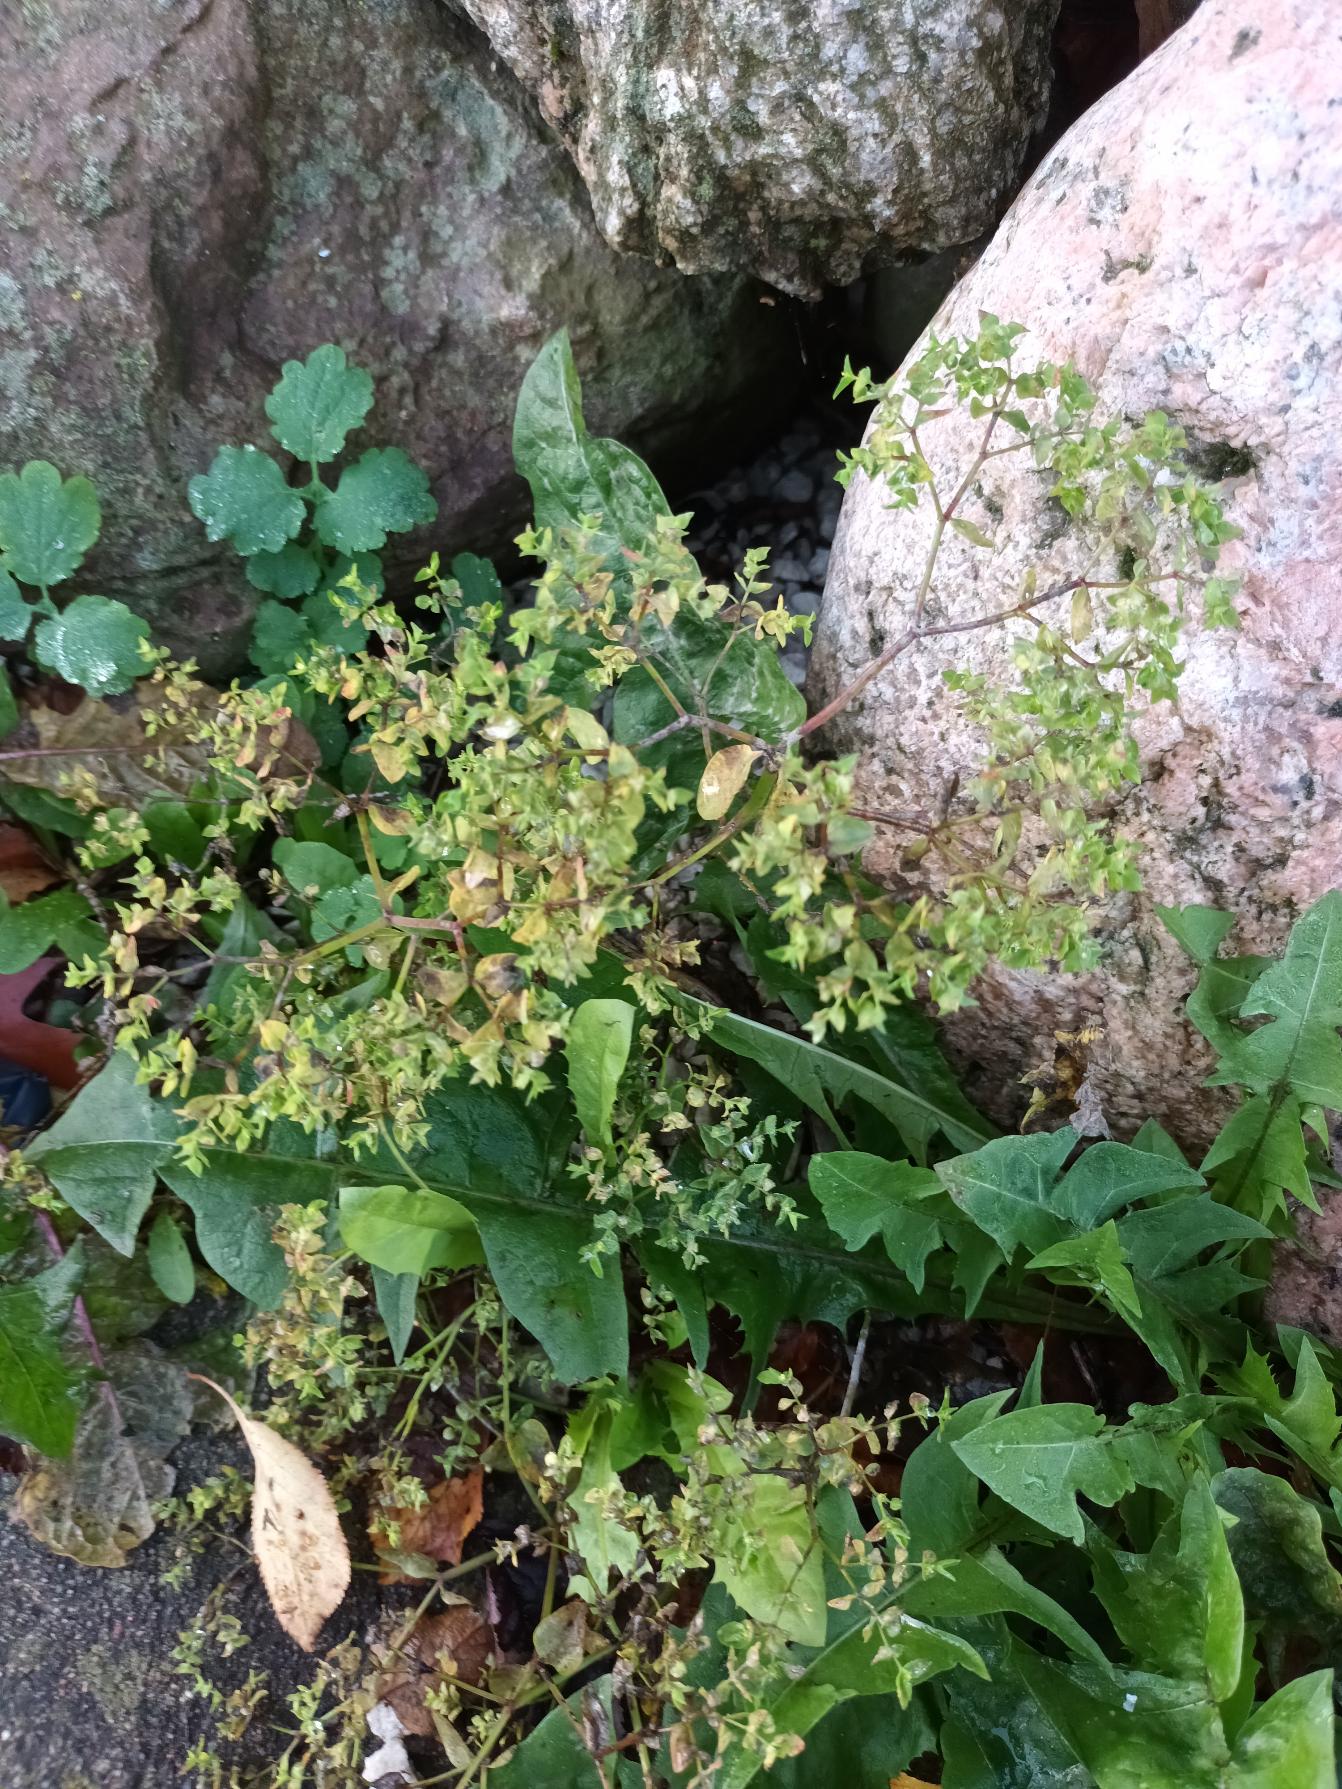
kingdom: Plantae
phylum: Tracheophyta
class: Magnoliopsida
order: Malpighiales
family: Euphorbiaceae
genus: Euphorbia
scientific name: Euphorbia peplus
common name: Gaffel-vortemælk
